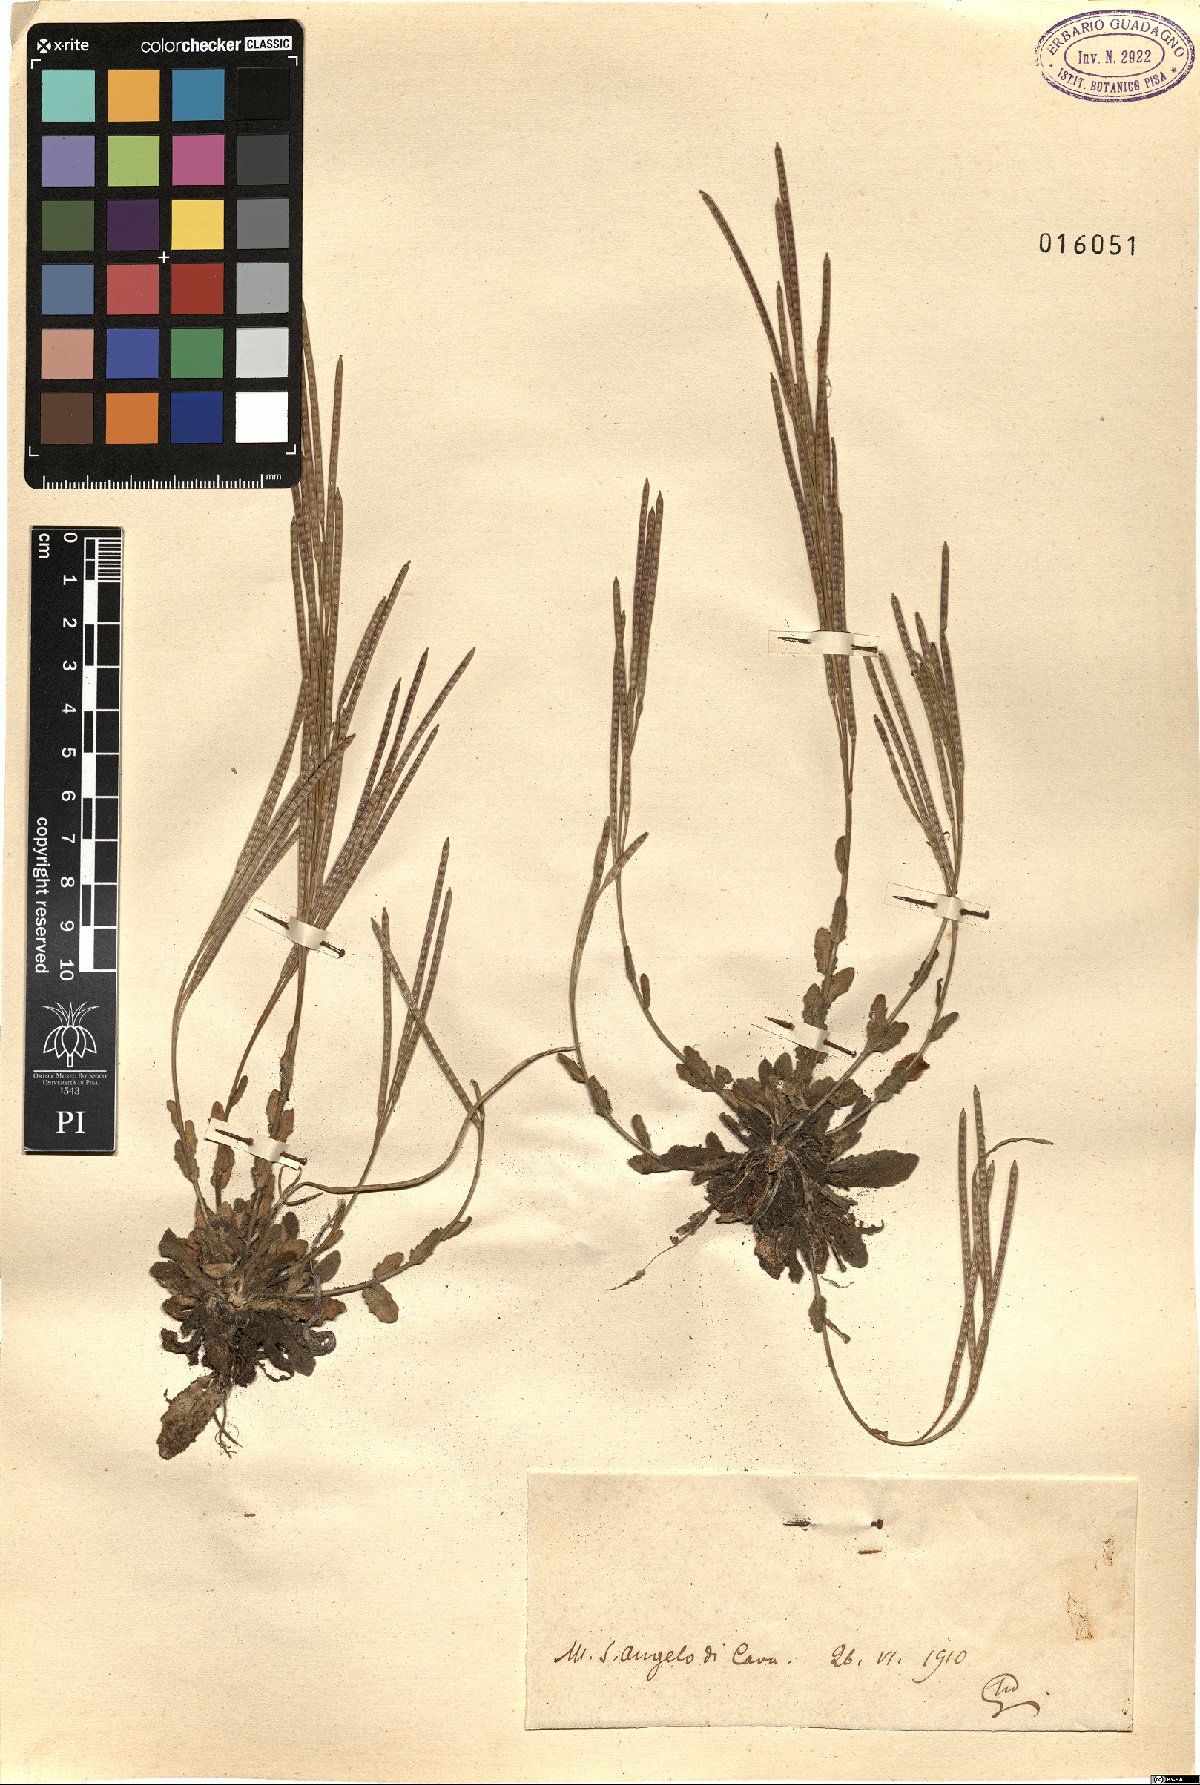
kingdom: Plantae
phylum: Tracheophyta
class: Magnoliopsida
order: Brassicales
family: Brassicaceae
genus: Arabis
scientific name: Arabis
